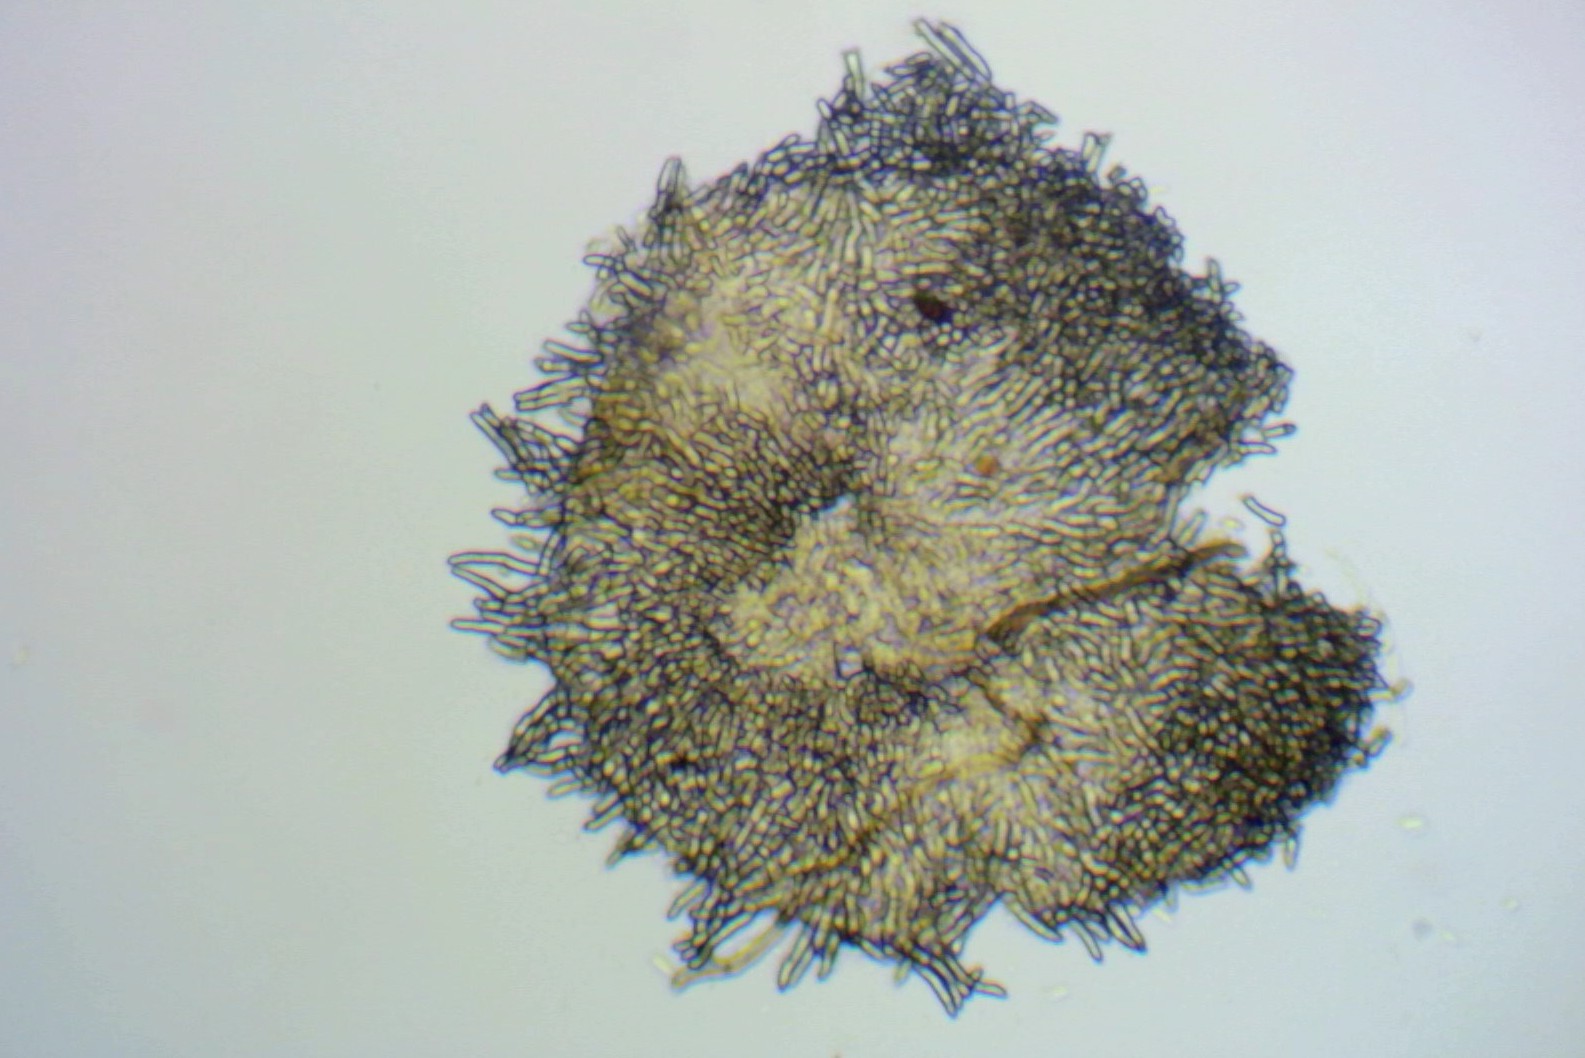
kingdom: Fungi
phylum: Ascomycota
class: Leotiomycetes
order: Helotiales
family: Hyaloscyphaceae
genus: Hyalopeziza
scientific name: Hyalopeziza millepunctata
